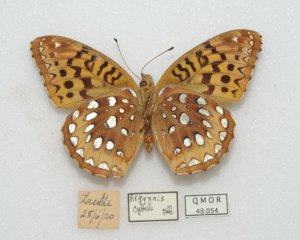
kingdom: Animalia
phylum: Arthropoda
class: Insecta
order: Lepidoptera
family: Nymphalidae
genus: Speyeria
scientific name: Speyeria cybele
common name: Great Spangled Fritillary
